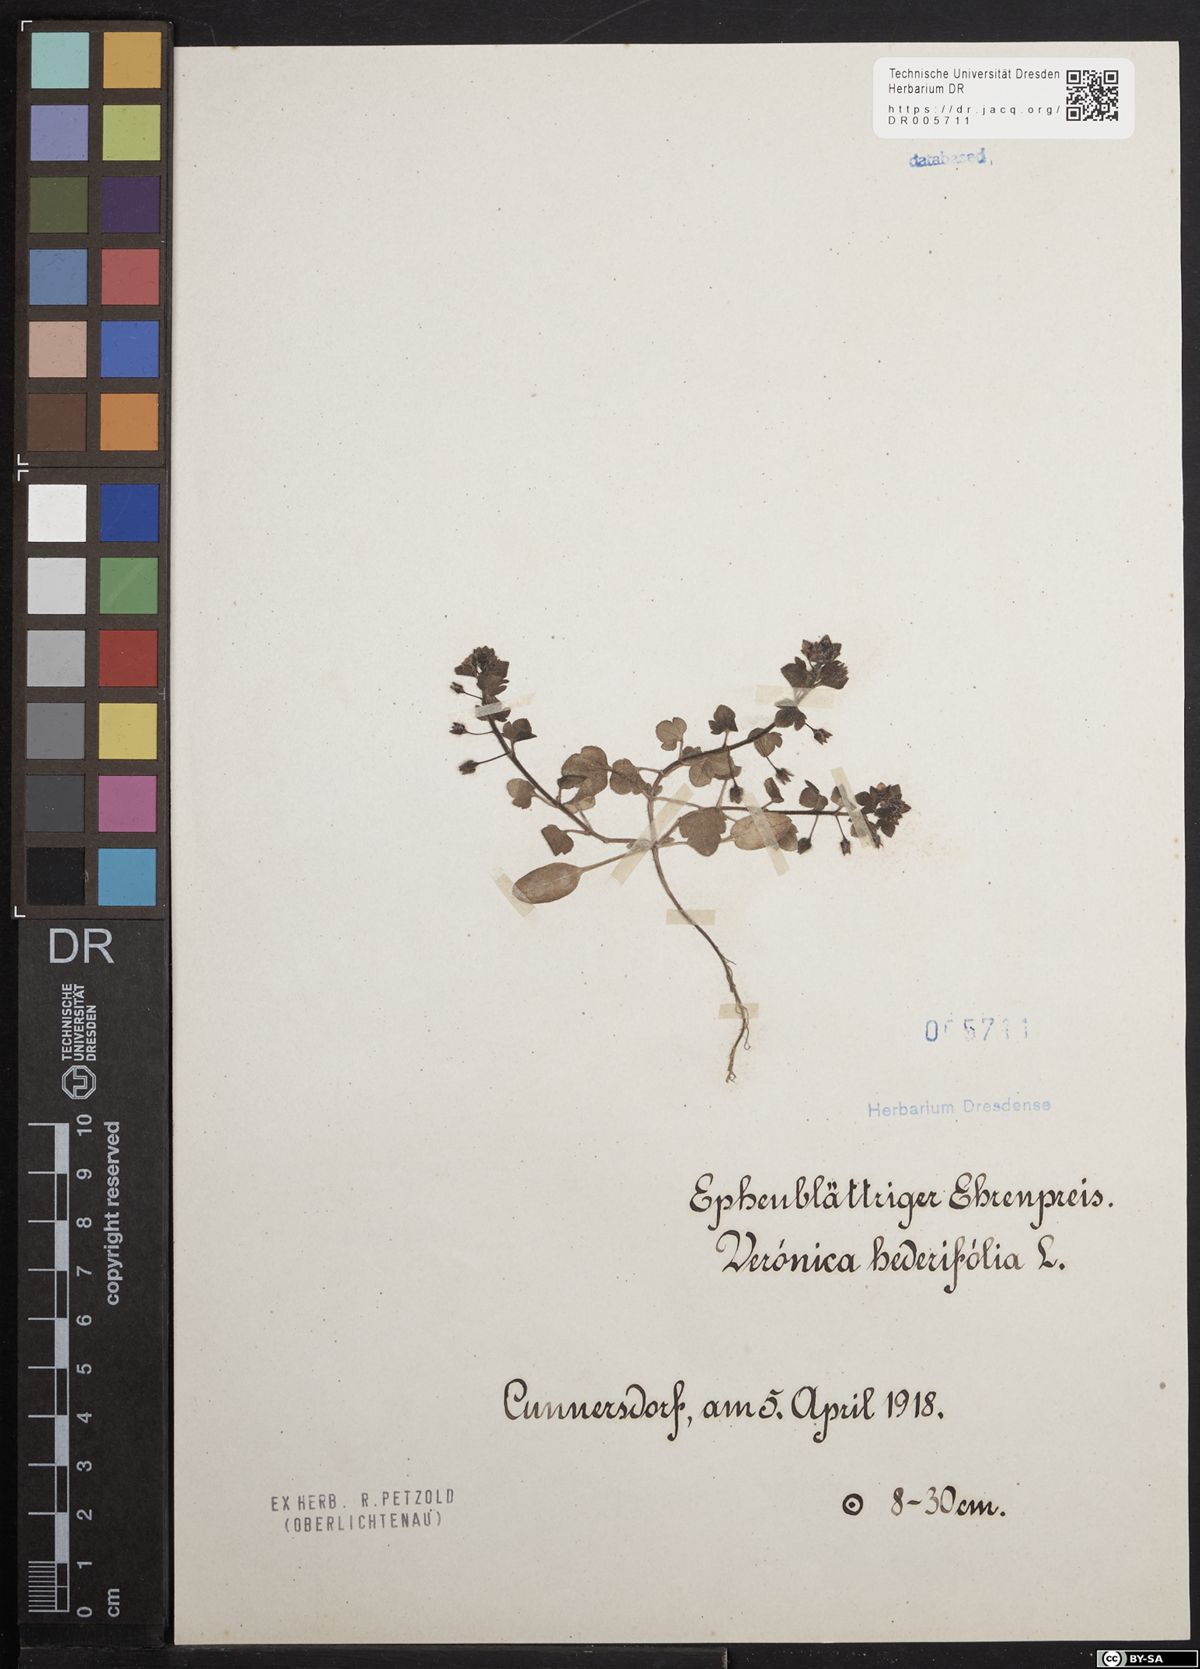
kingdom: Plantae
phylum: Tracheophyta
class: Magnoliopsida
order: Lamiales
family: Plantaginaceae
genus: Veronica
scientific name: Veronica hederifolia
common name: Ivy-leaved speedwell
